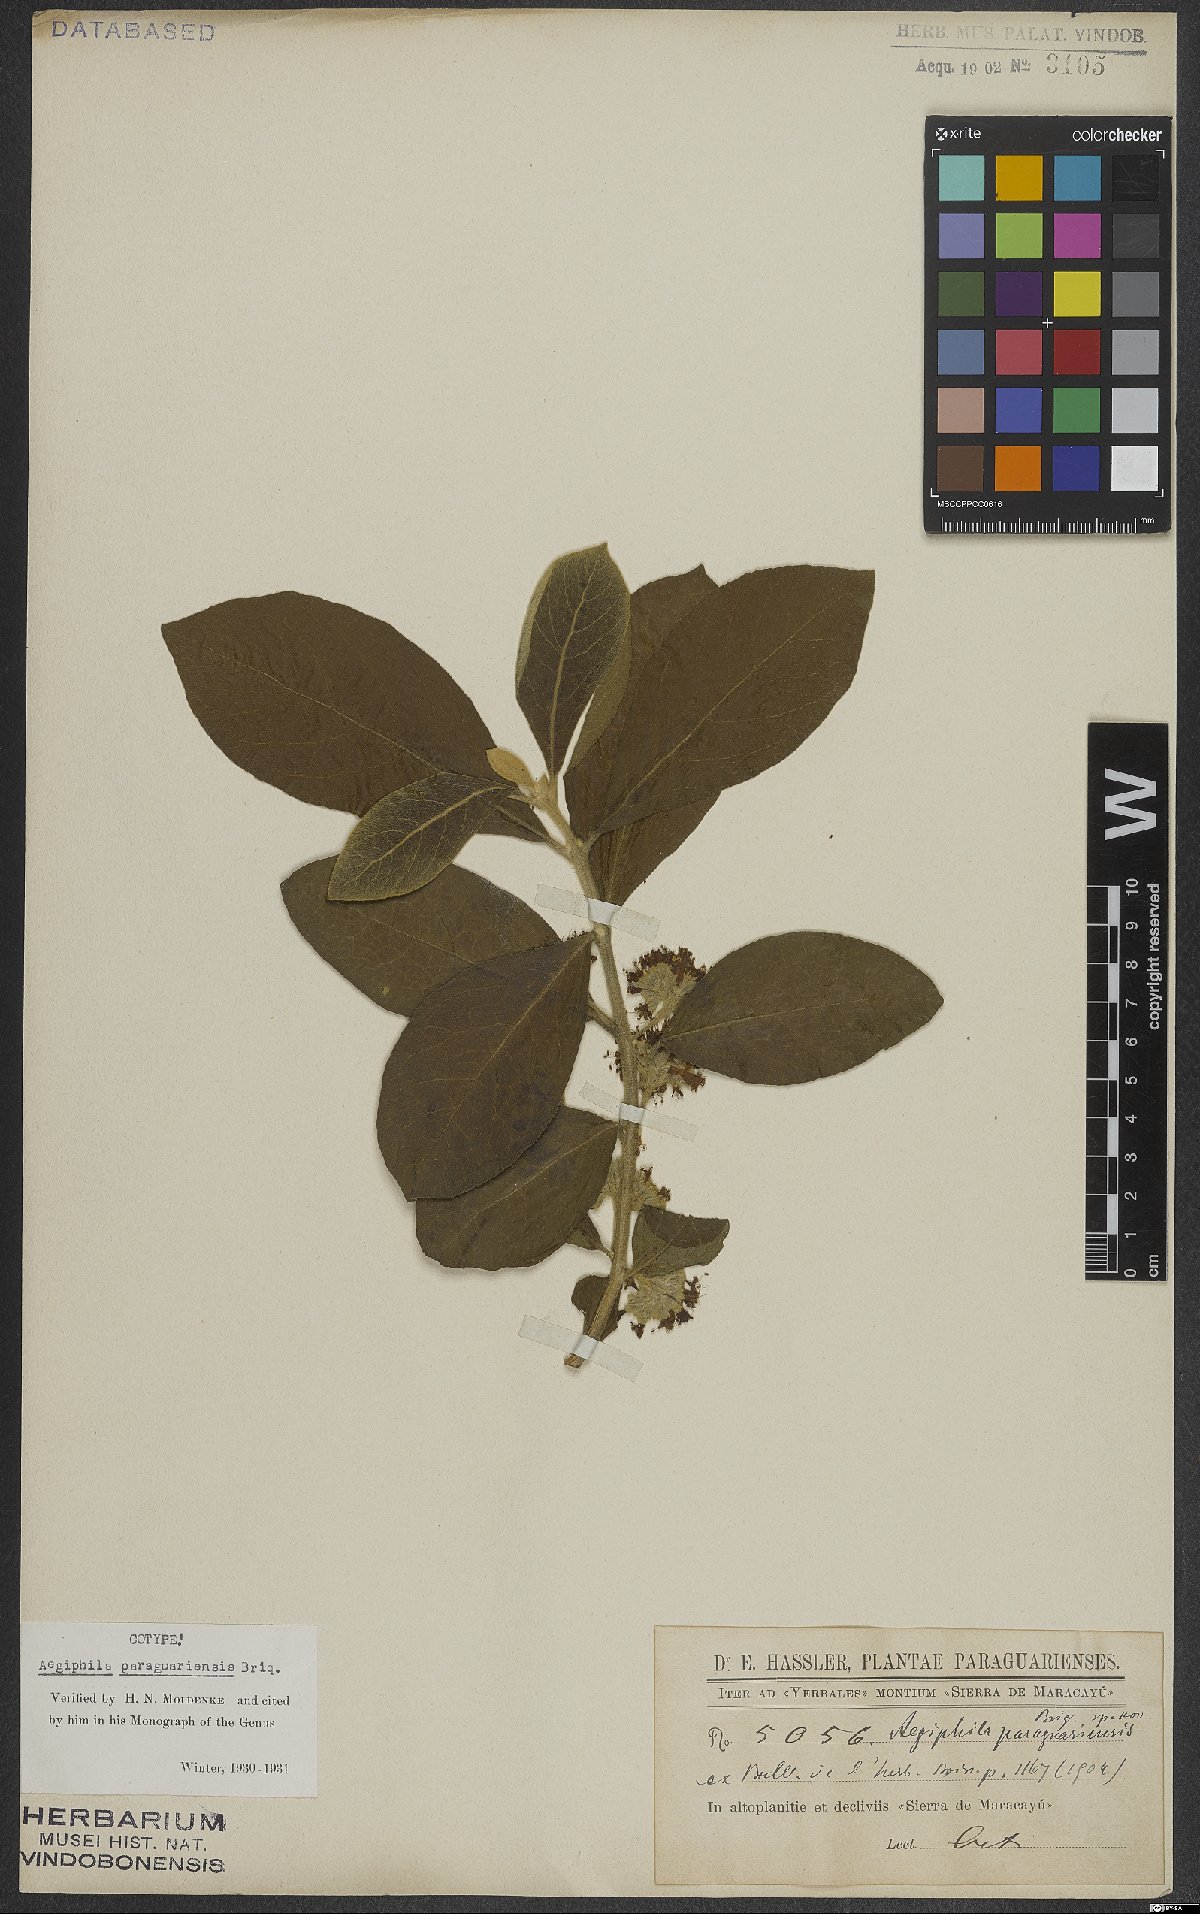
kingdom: Plantae
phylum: Tracheophyta
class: Magnoliopsida
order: Lamiales
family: Lamiaceae
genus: Aegiphila
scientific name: Aegiphila paraguariensis
